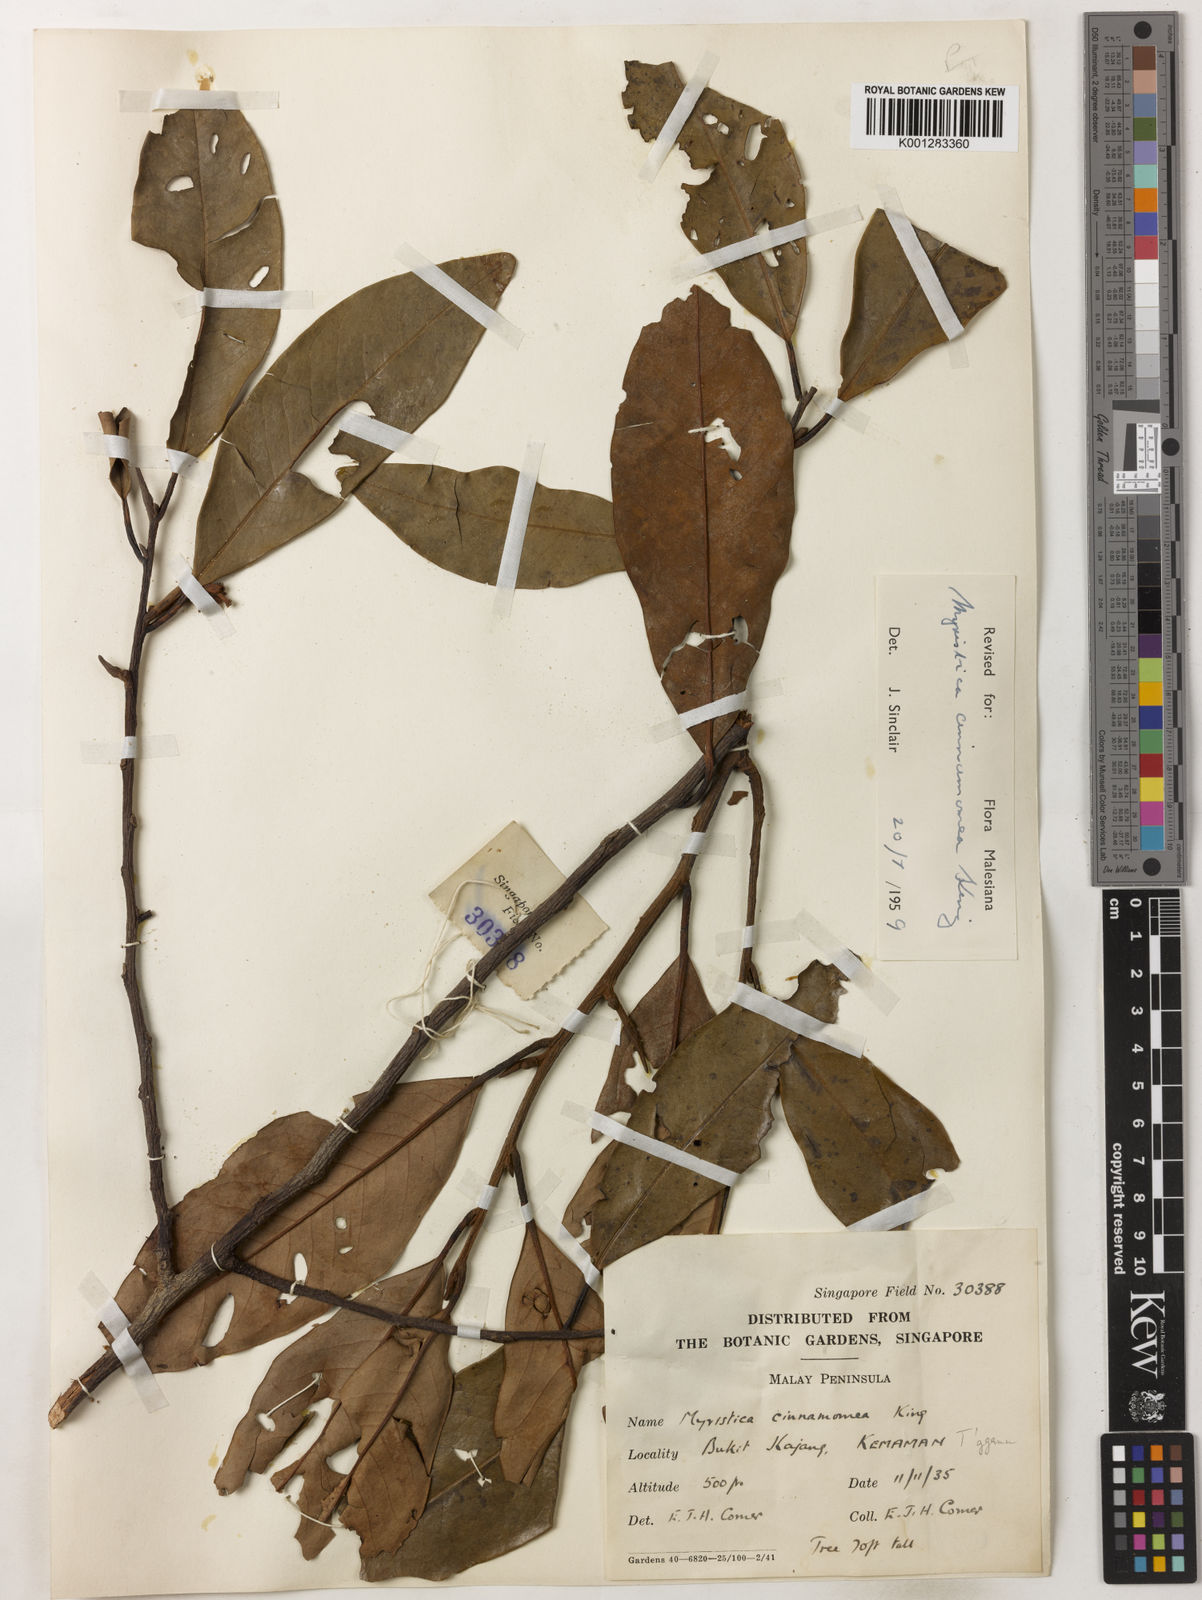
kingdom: Plantae
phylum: Tracheophyta
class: Magnoliopsida
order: Magnoliales
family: Myristicaceae
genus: Myristica
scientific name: Myristica cinnamomea
